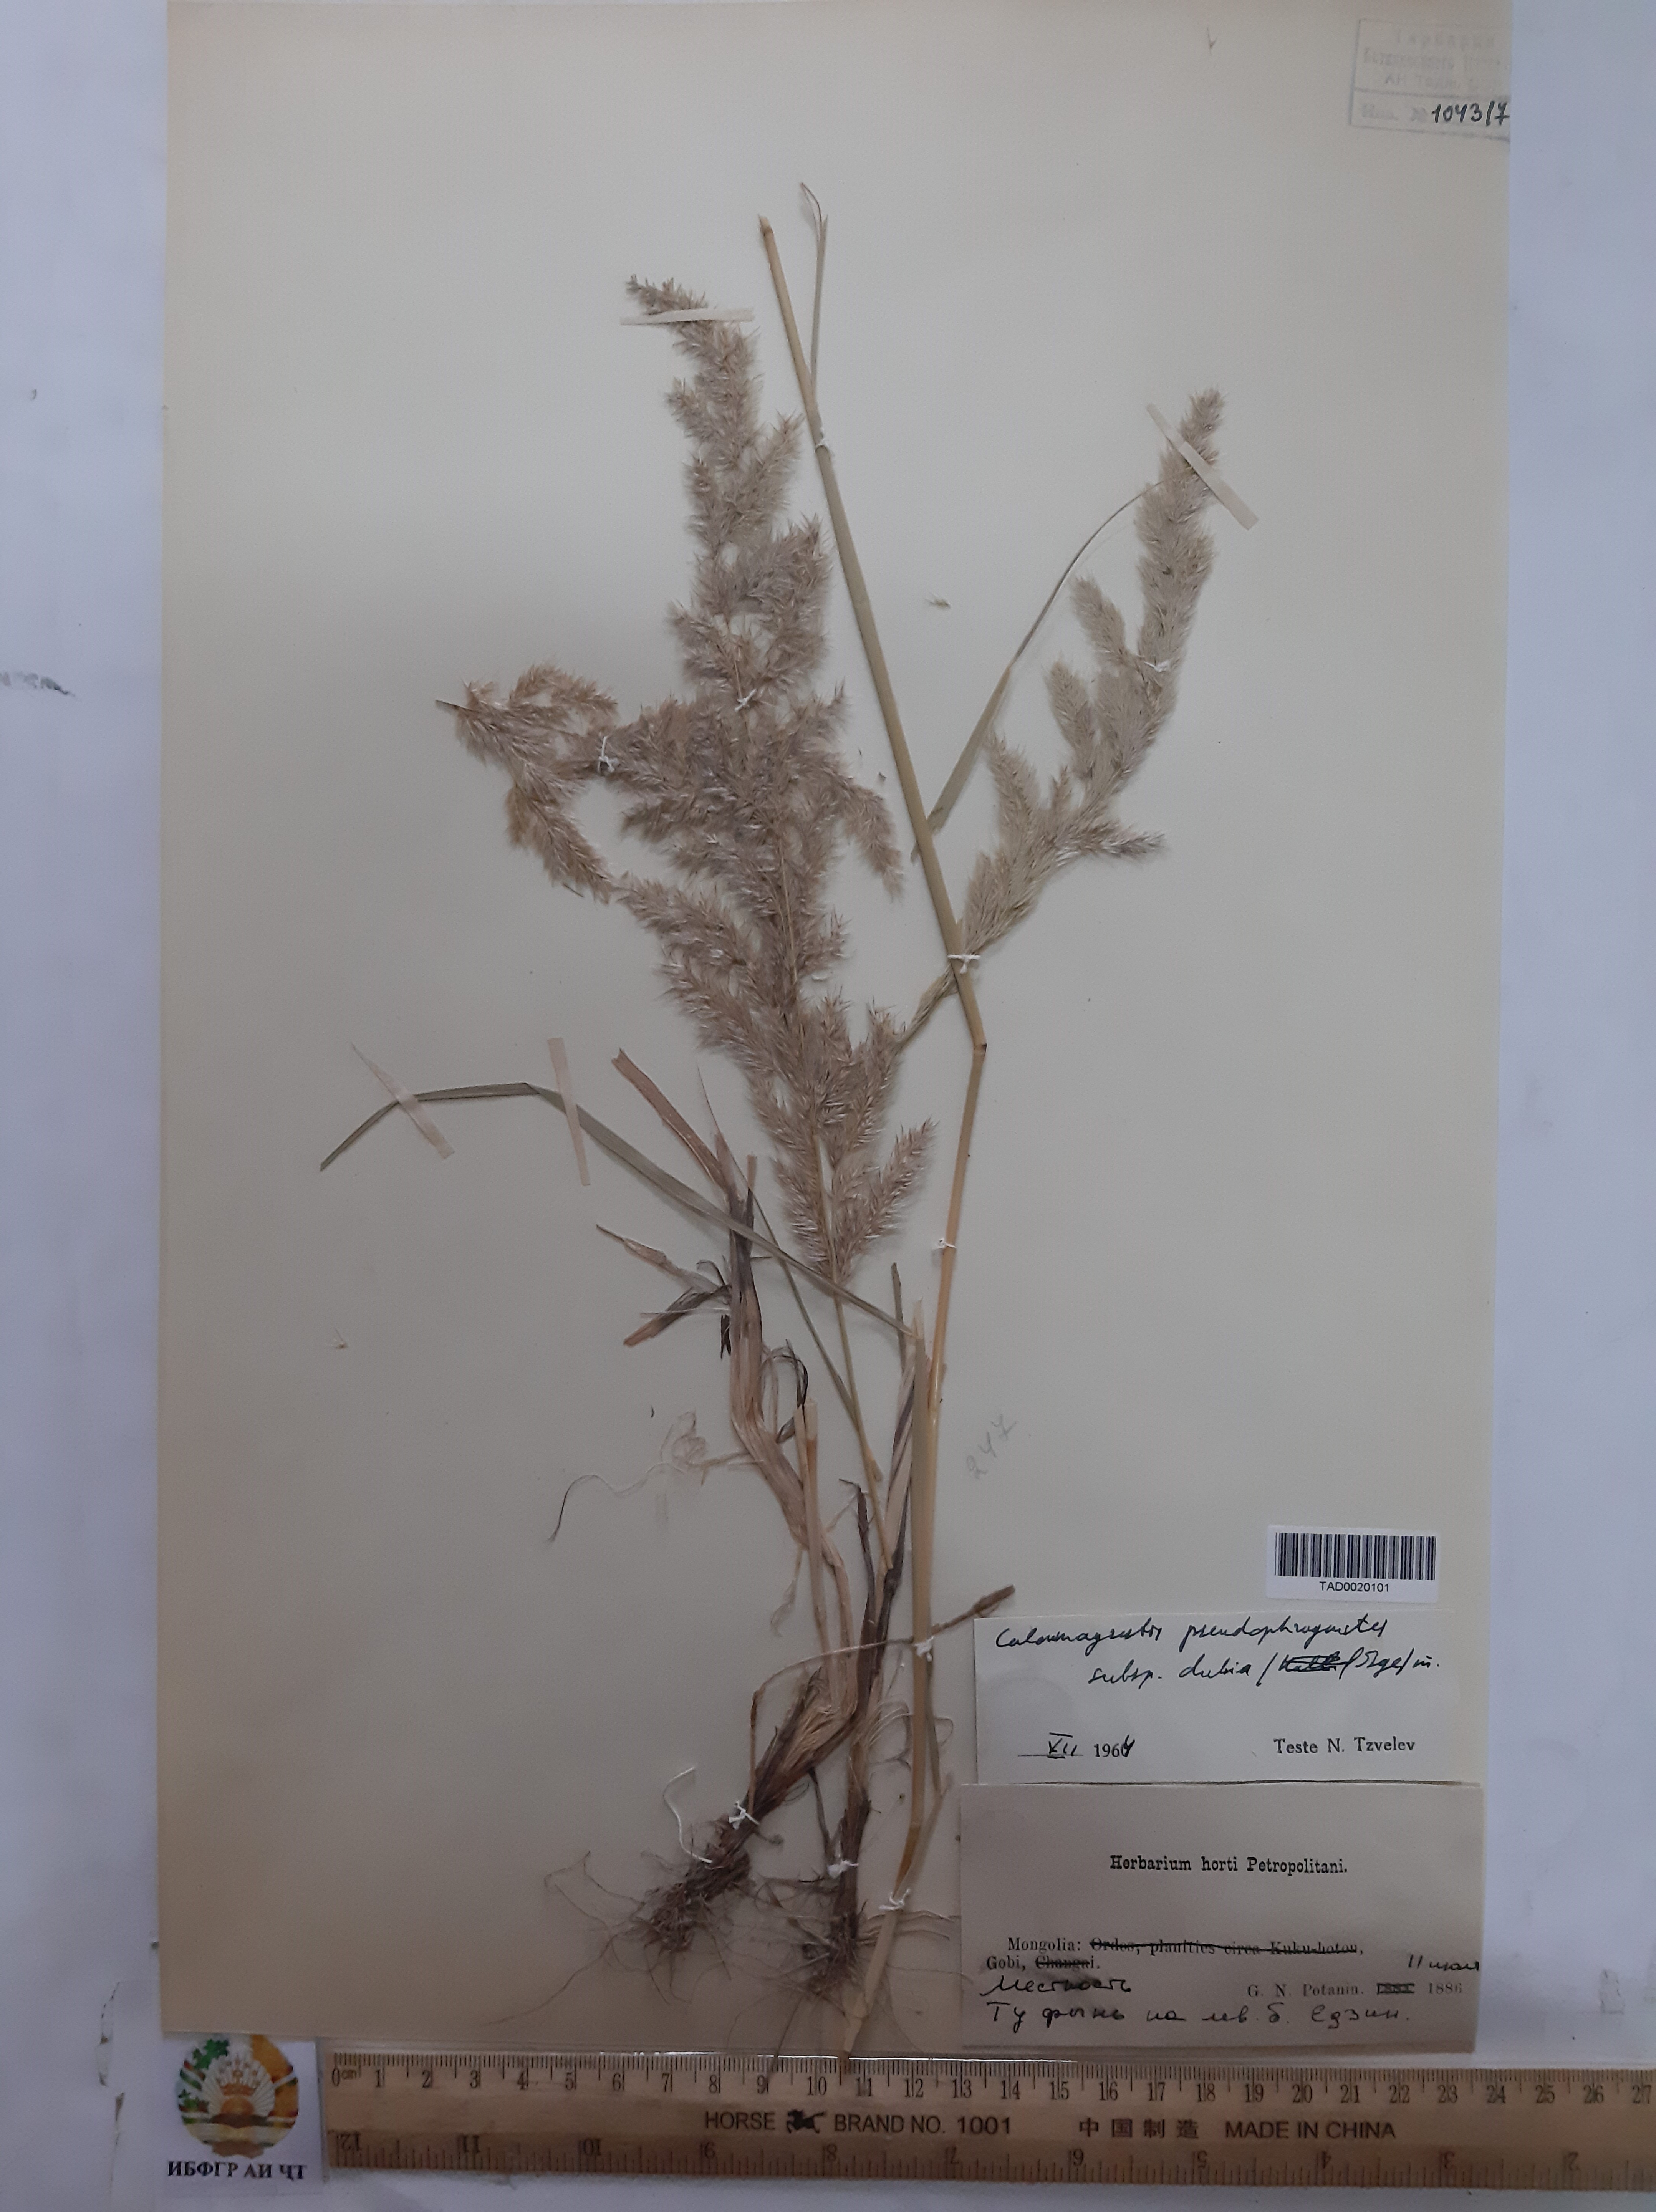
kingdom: Plantae
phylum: Tracheophyta
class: Liliopsida
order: Poales
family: Poaceae
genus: Calamagrostis
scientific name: Calamagrostis pseudophragmites
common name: Coastal small-reed
